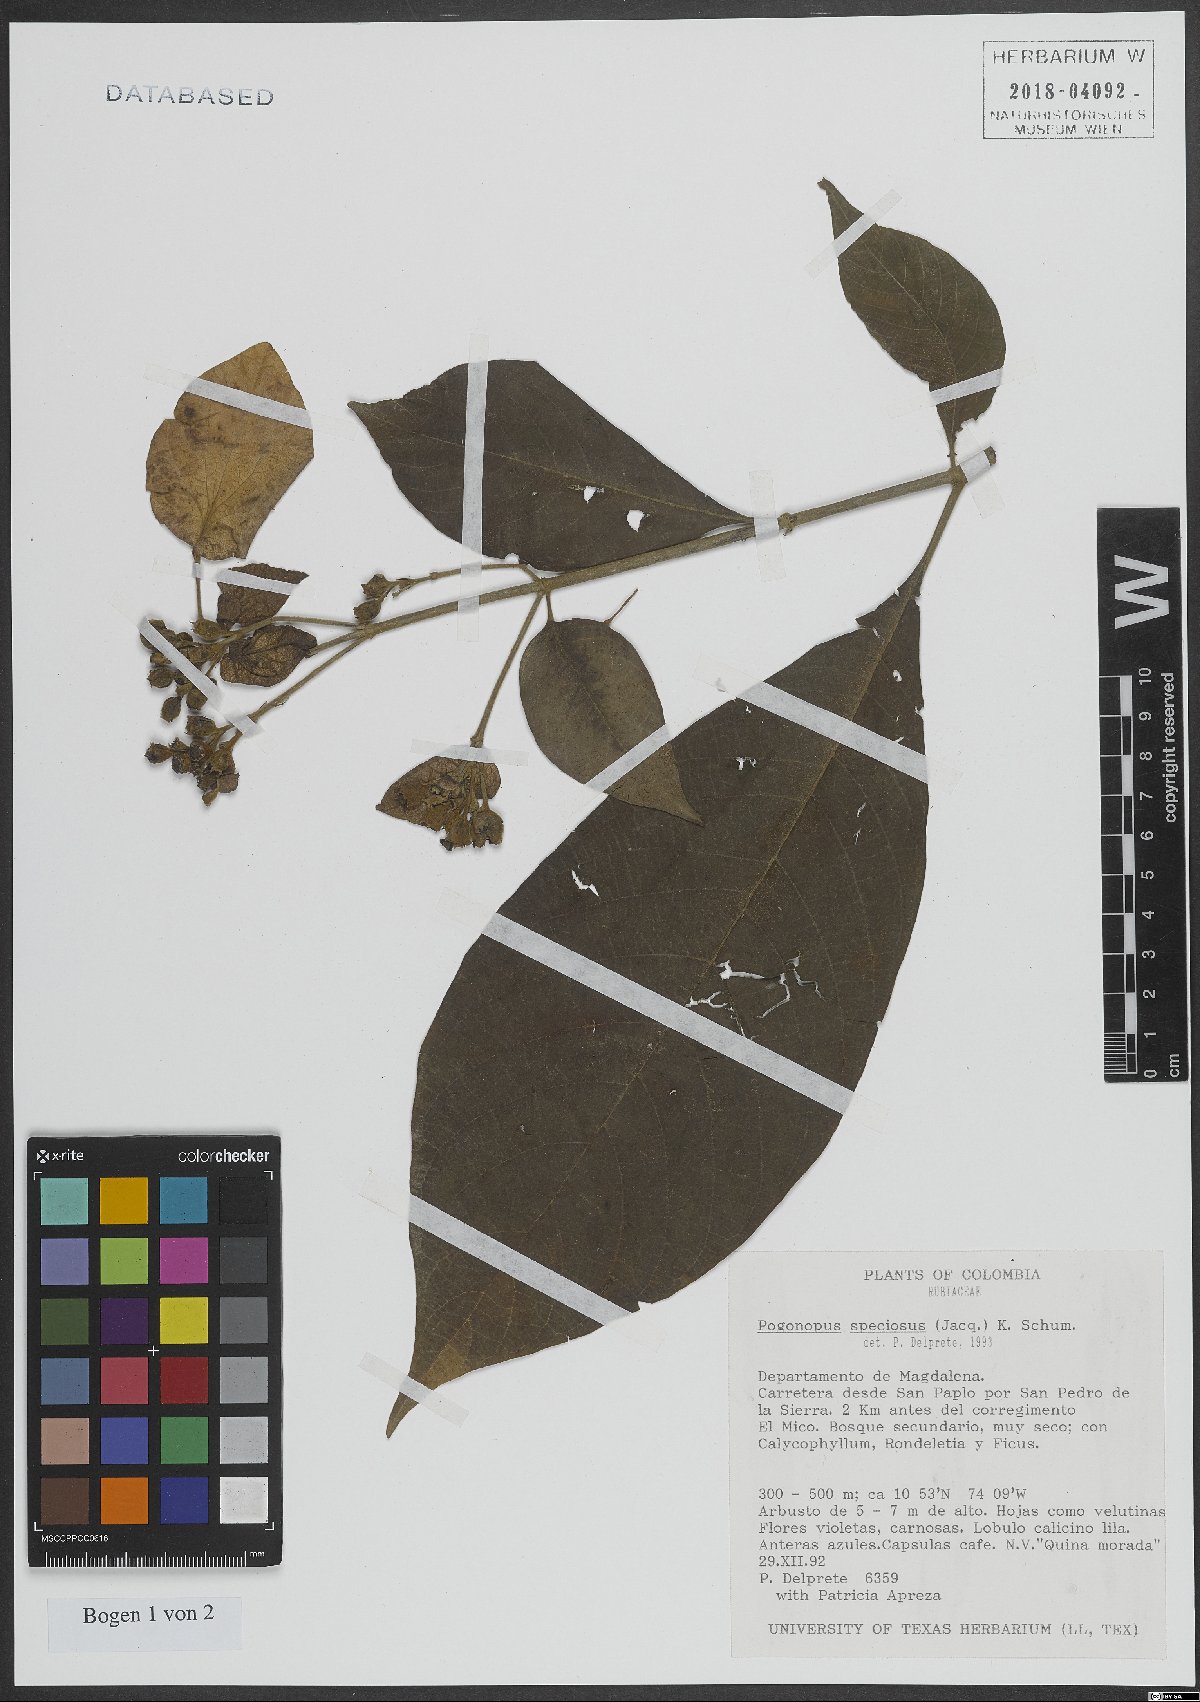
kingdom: Plantae
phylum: Tracheophyta
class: Magnoliopsida
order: Gentianales
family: Rubiaceae
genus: Pogonopus
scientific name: Pogonopus speciosus
